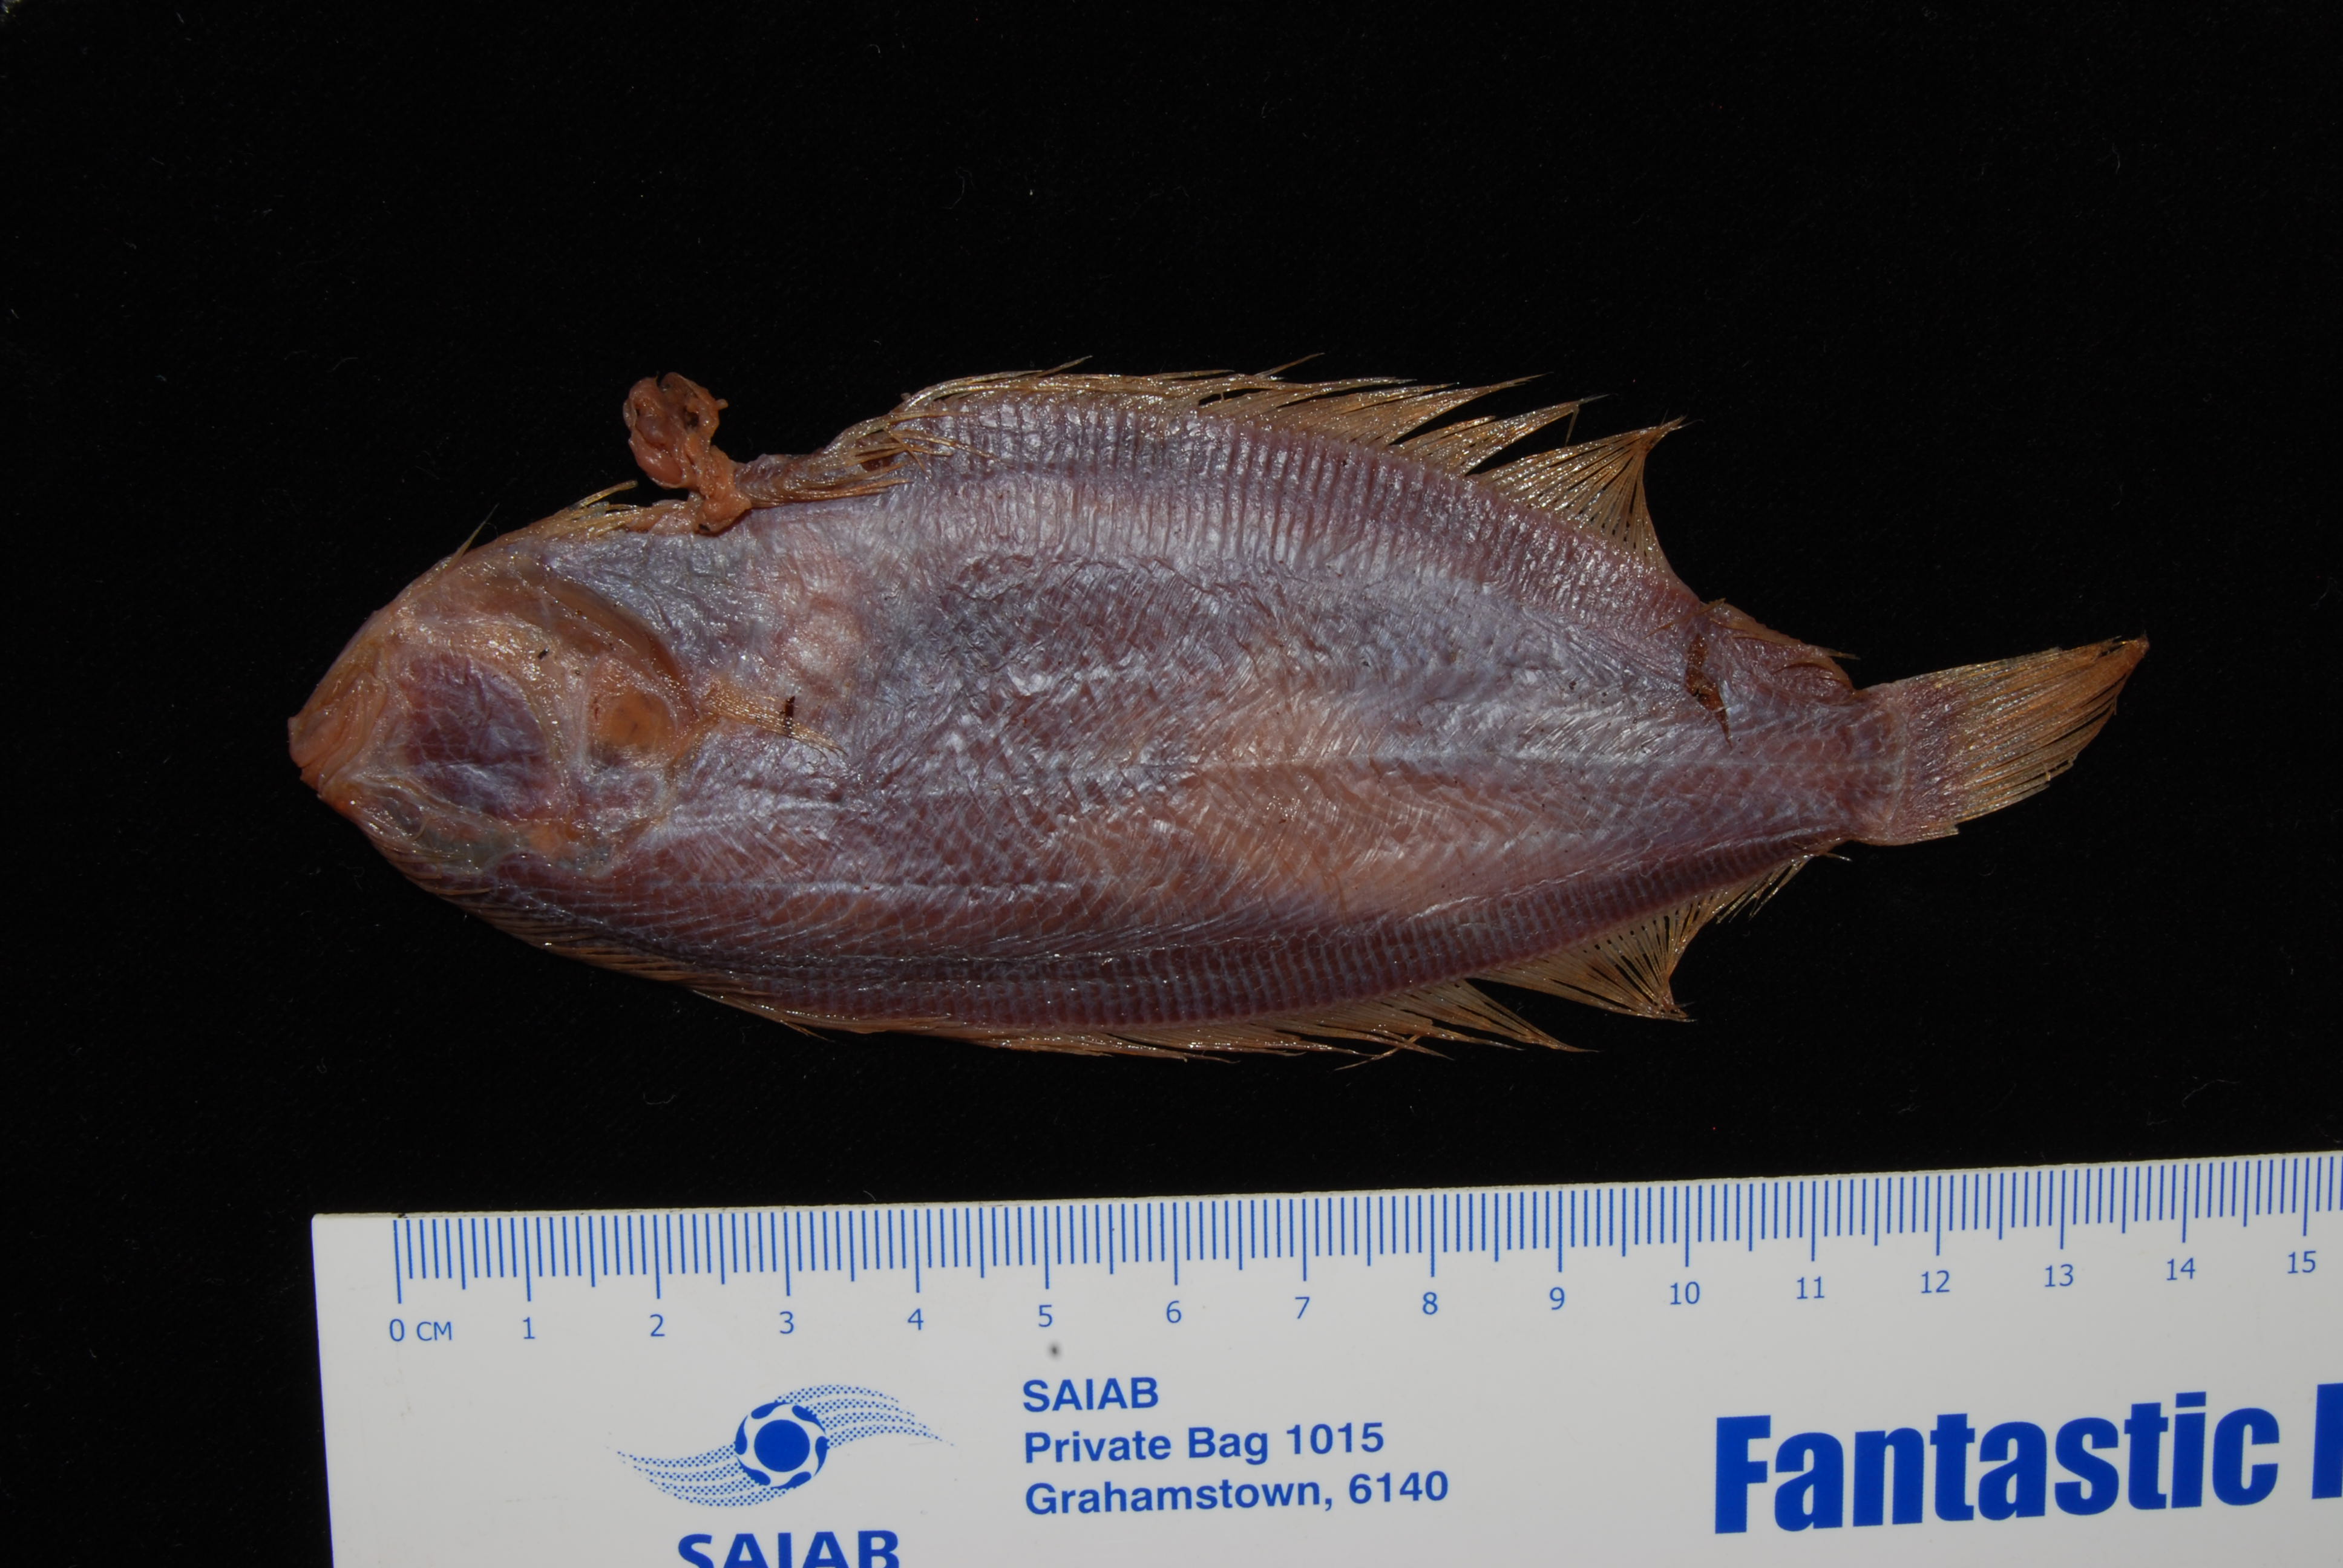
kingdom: Animalia
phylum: Chordata
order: Pleuronectiformes
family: Bothidae
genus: Arnoglossus
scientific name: Arnoglossus
